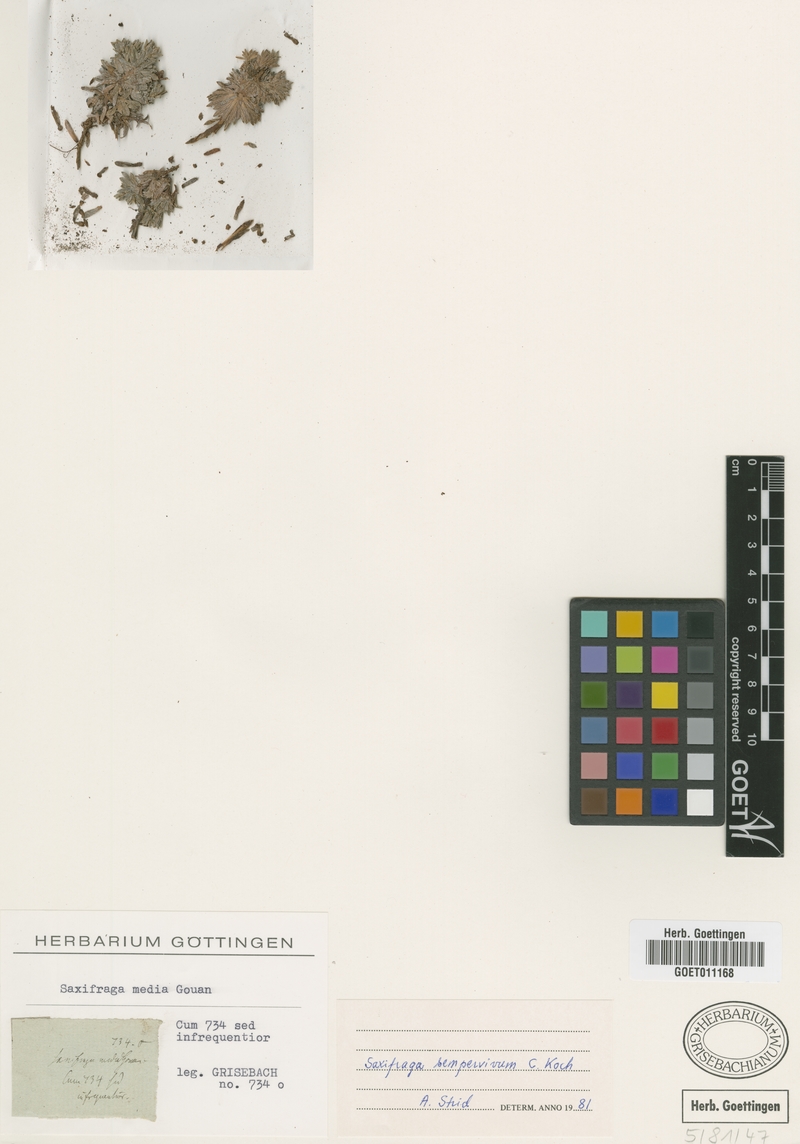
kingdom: Plantae
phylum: Tracheophyta
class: Magnoliopsida
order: Saxifragales
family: Saxifragaceae
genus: Saxifraga
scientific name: Saxifraga media
